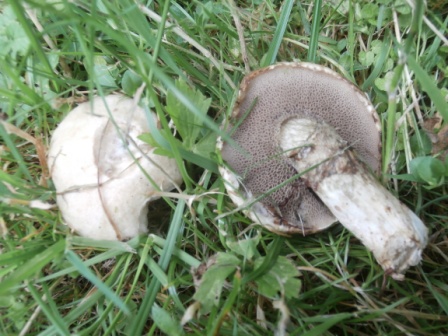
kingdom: Fungi
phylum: Basidiomycota
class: Agaricomycetes
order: Boletales
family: Suillaceae
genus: Suillus
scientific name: Suillus viscidus
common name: olivengrå slimrørhat
